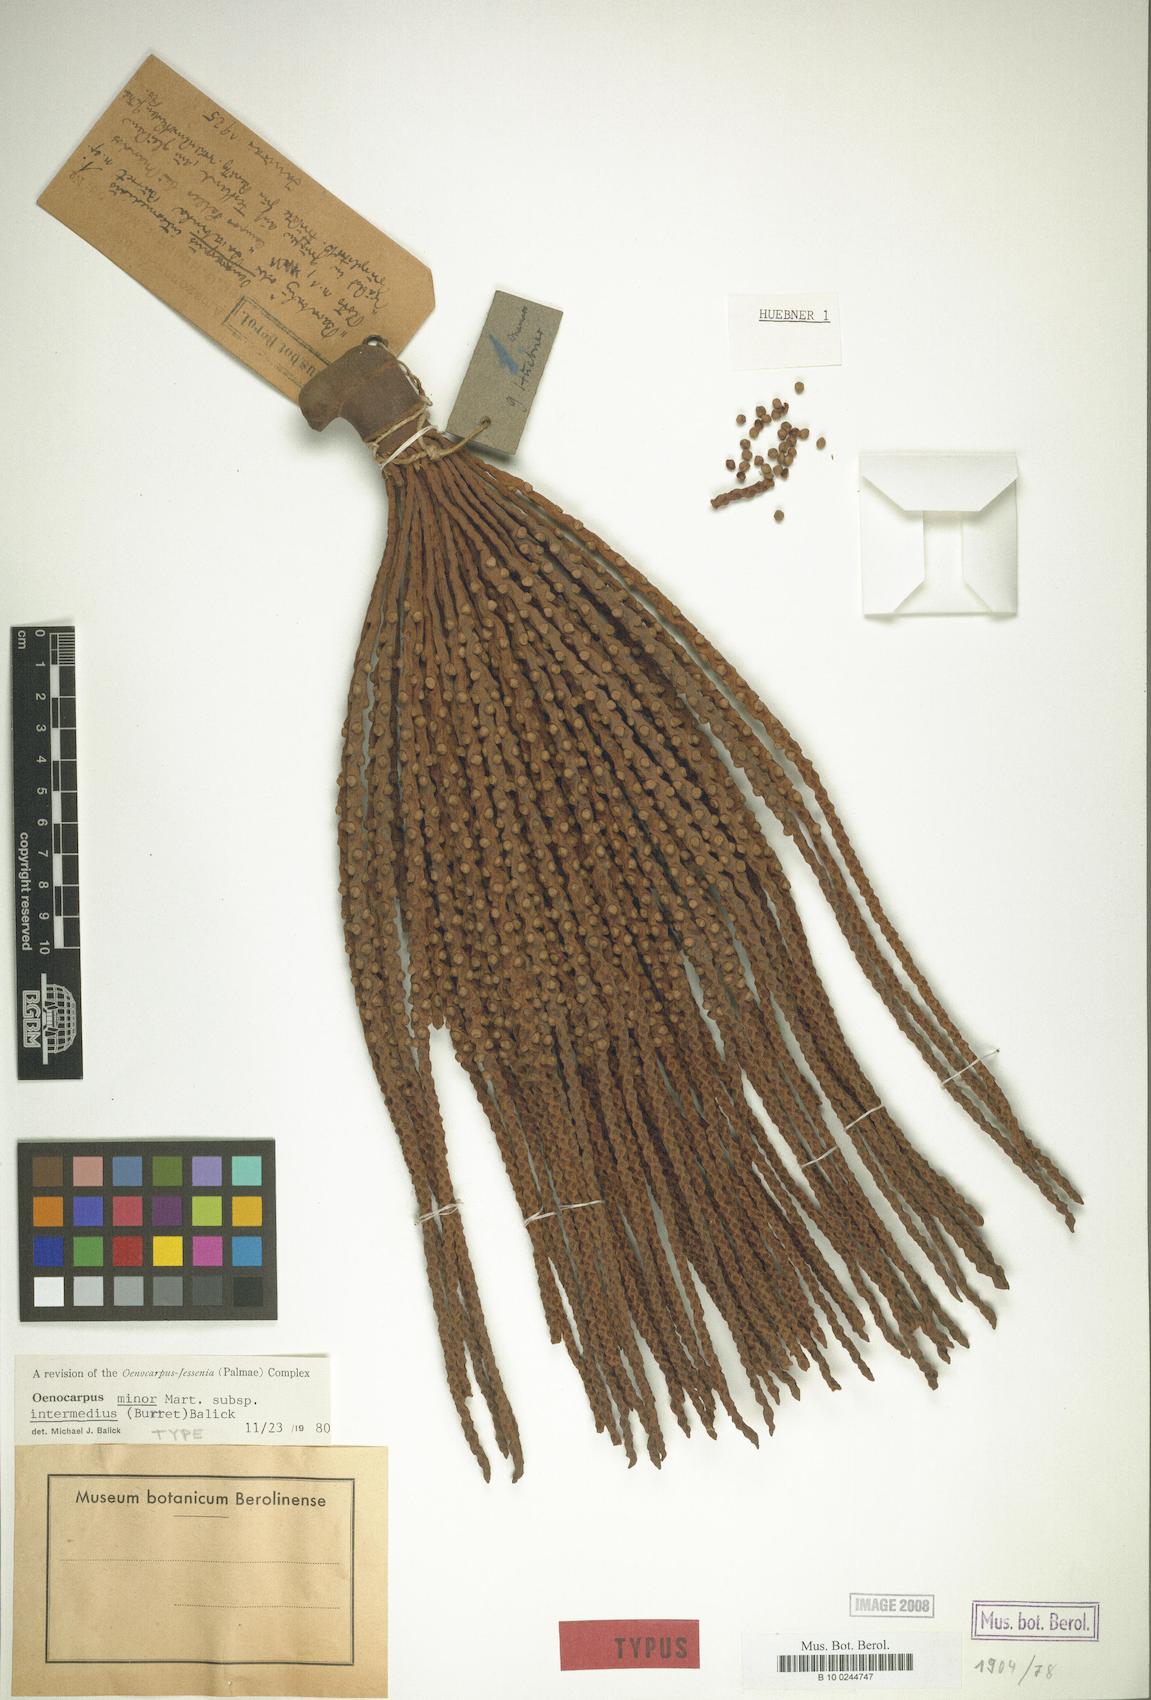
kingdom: Plantae
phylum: Tracheophyta
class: Liliopsida
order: Arecales
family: Arecaceae
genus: Oenocarpus
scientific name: Oenocarpus minor
